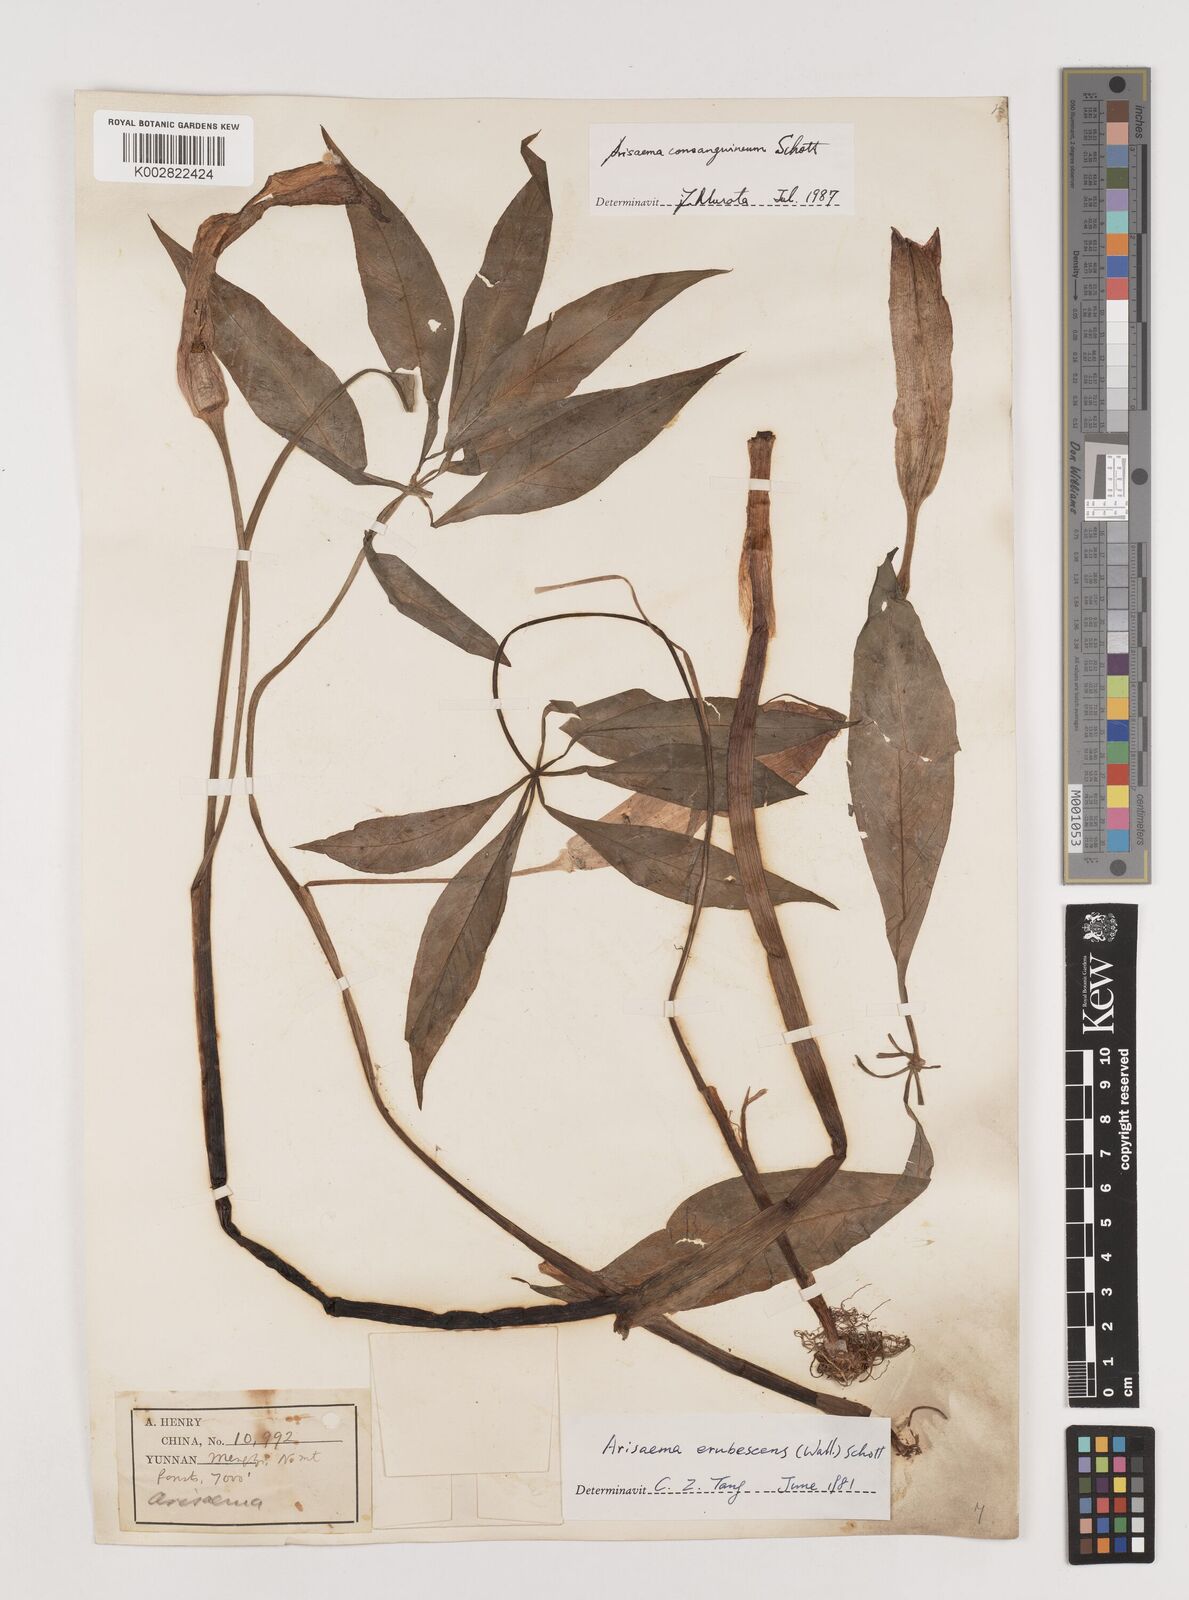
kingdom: Plantae
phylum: Tracheophyta
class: Liliopsida
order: Alismatales
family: Araceae
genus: Arisaema
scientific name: Arisaema erubescens
